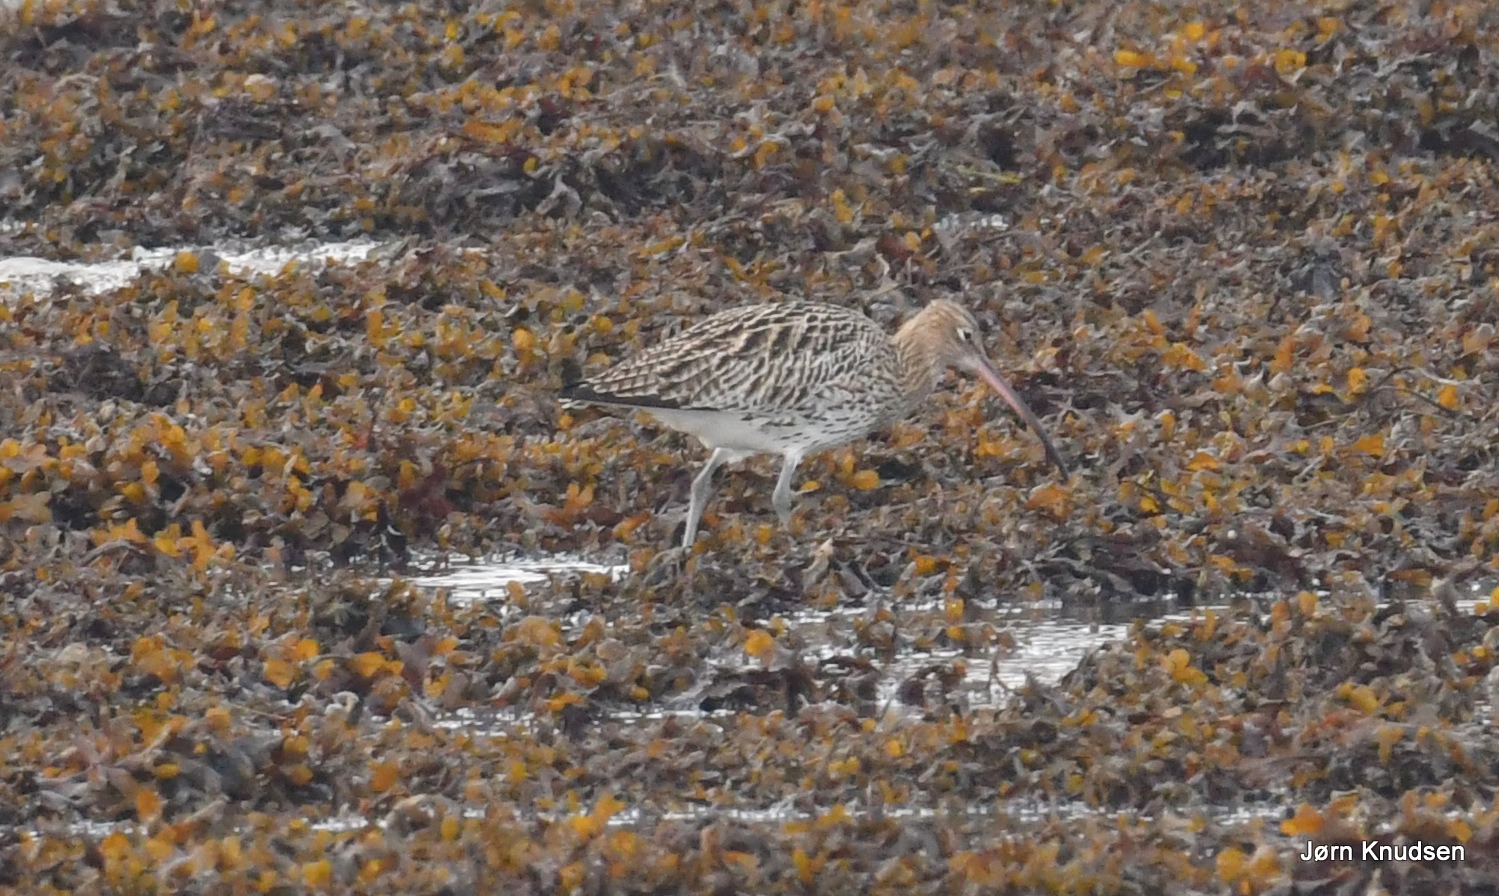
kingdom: Animalia
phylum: Chordata
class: Aves
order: Charadriiformes
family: Scolopacidae
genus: Numenius
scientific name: Numenius arquata
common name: Storspove
